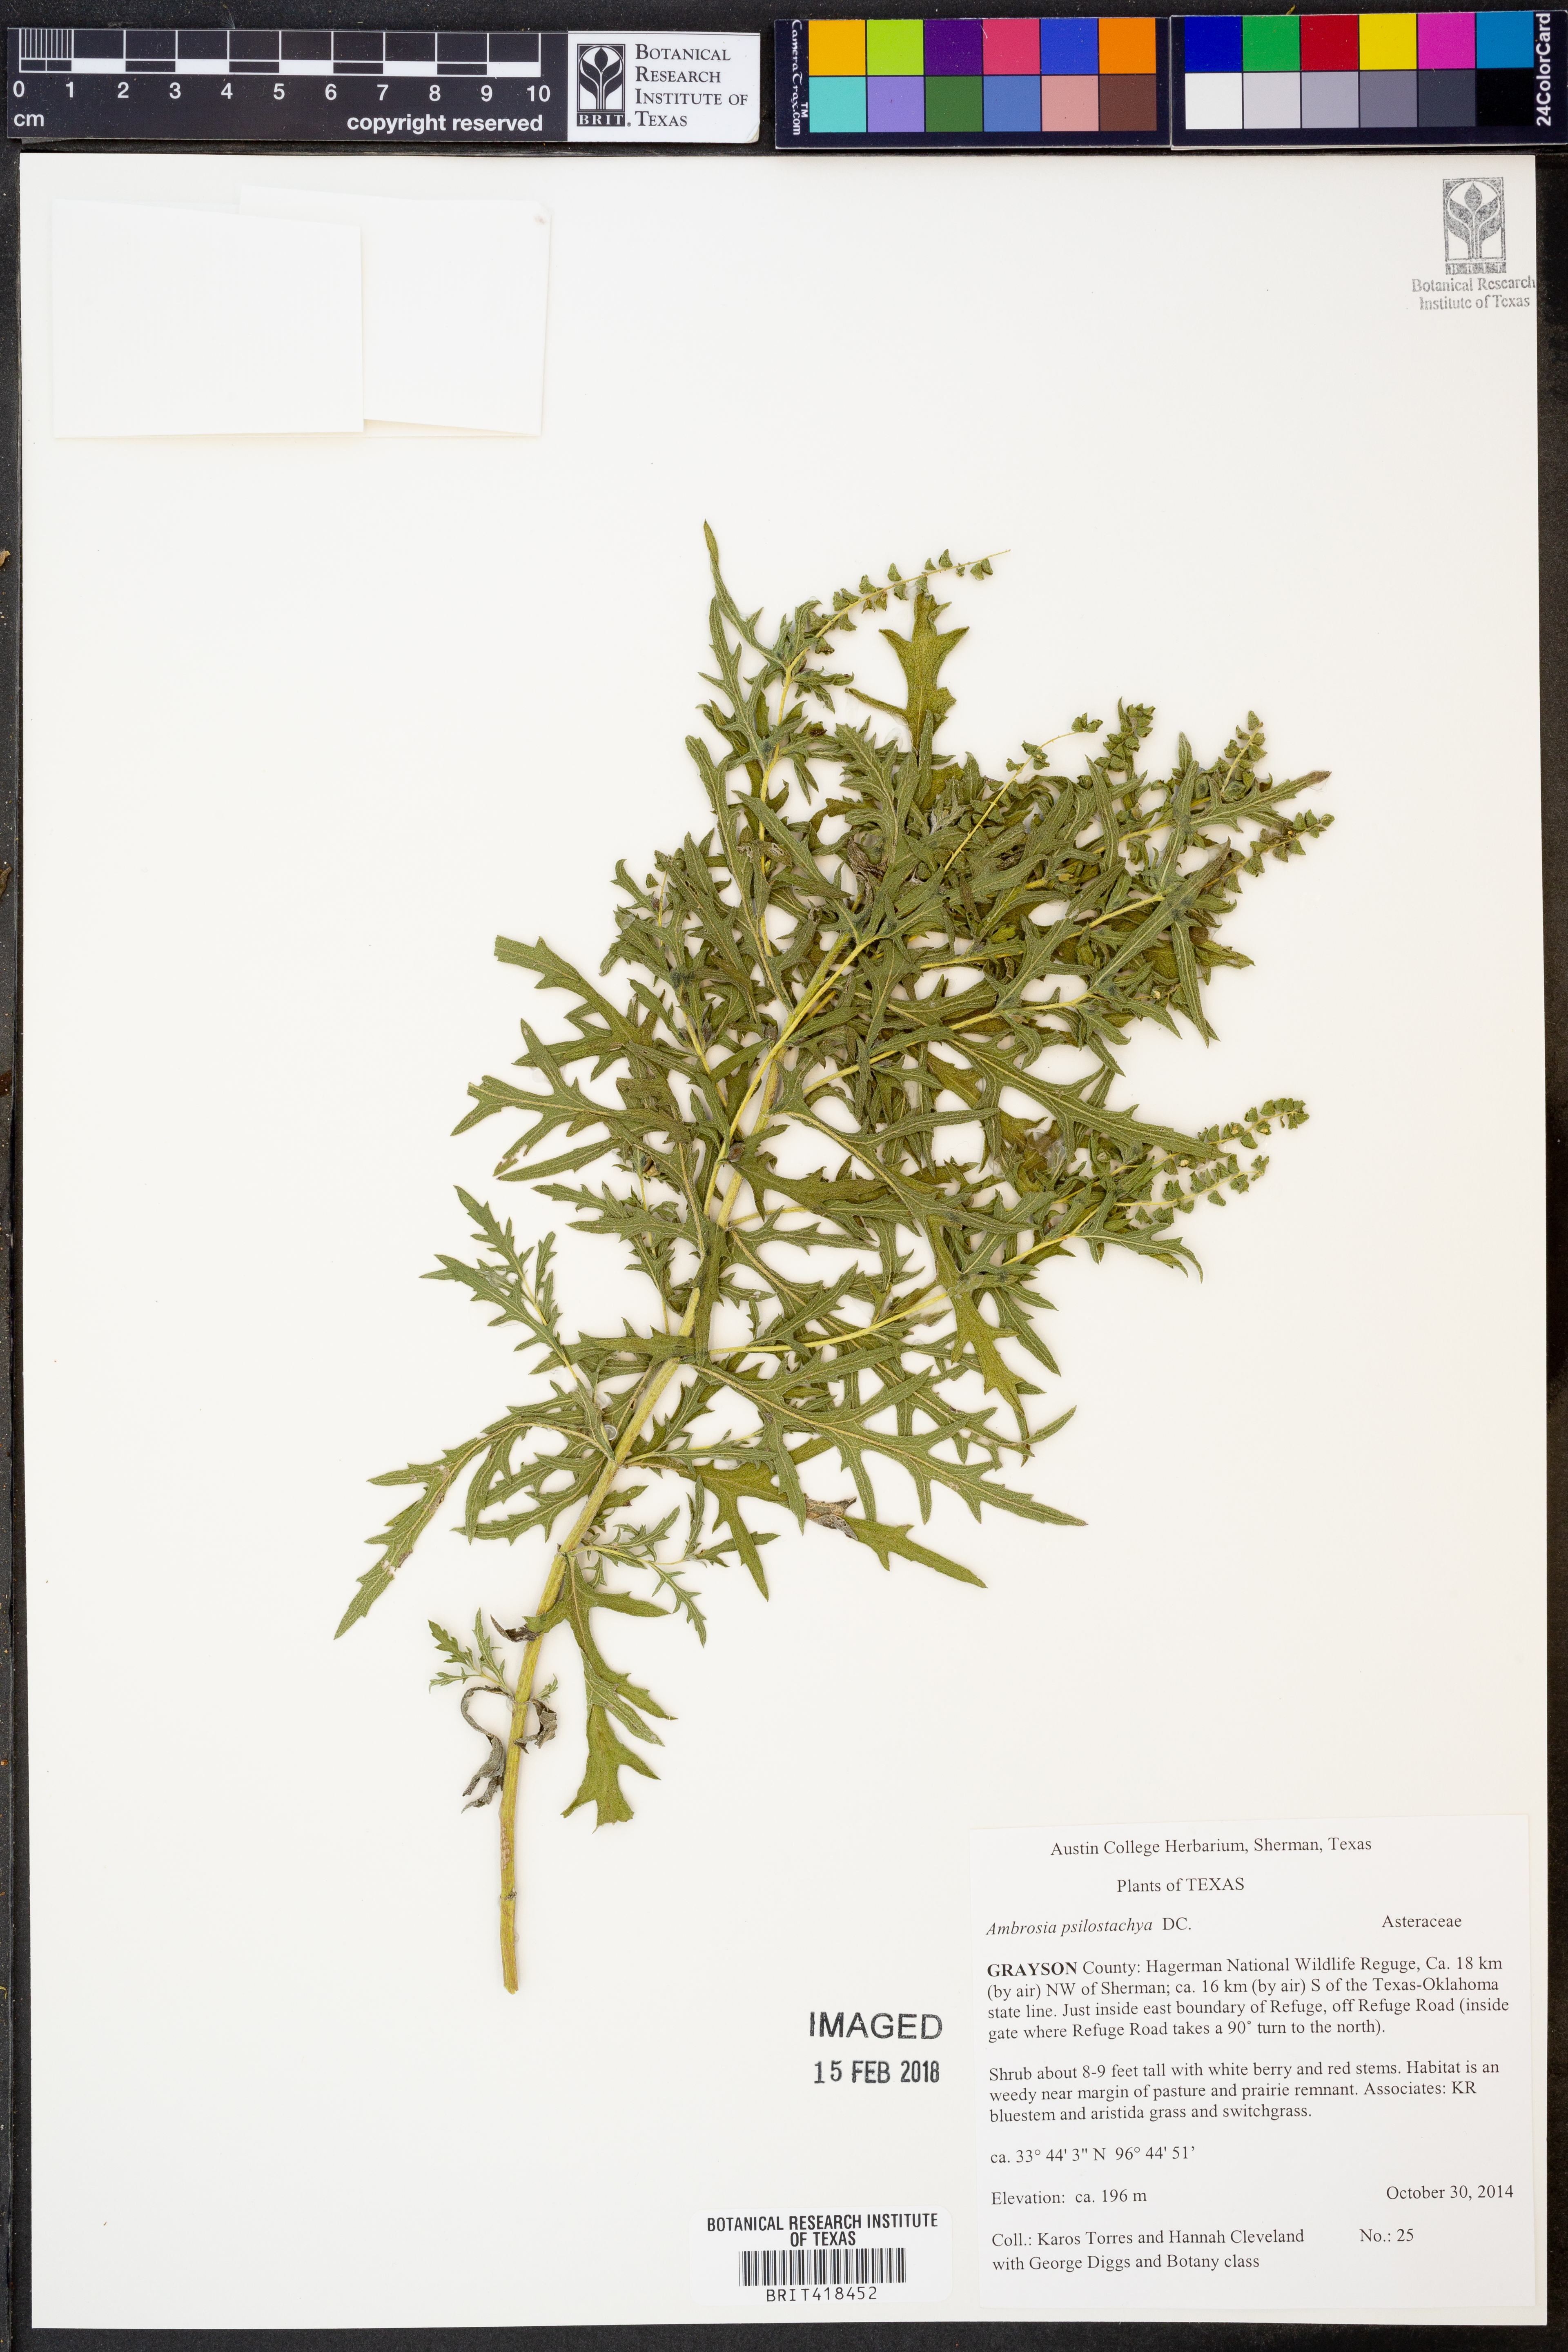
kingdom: Plantae
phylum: Tracheophyta
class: Magnoliopsida
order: Asterales
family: Asteraceae
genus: Ambrosia
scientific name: Ambrosia psilostachya
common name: Perennial ragweed
